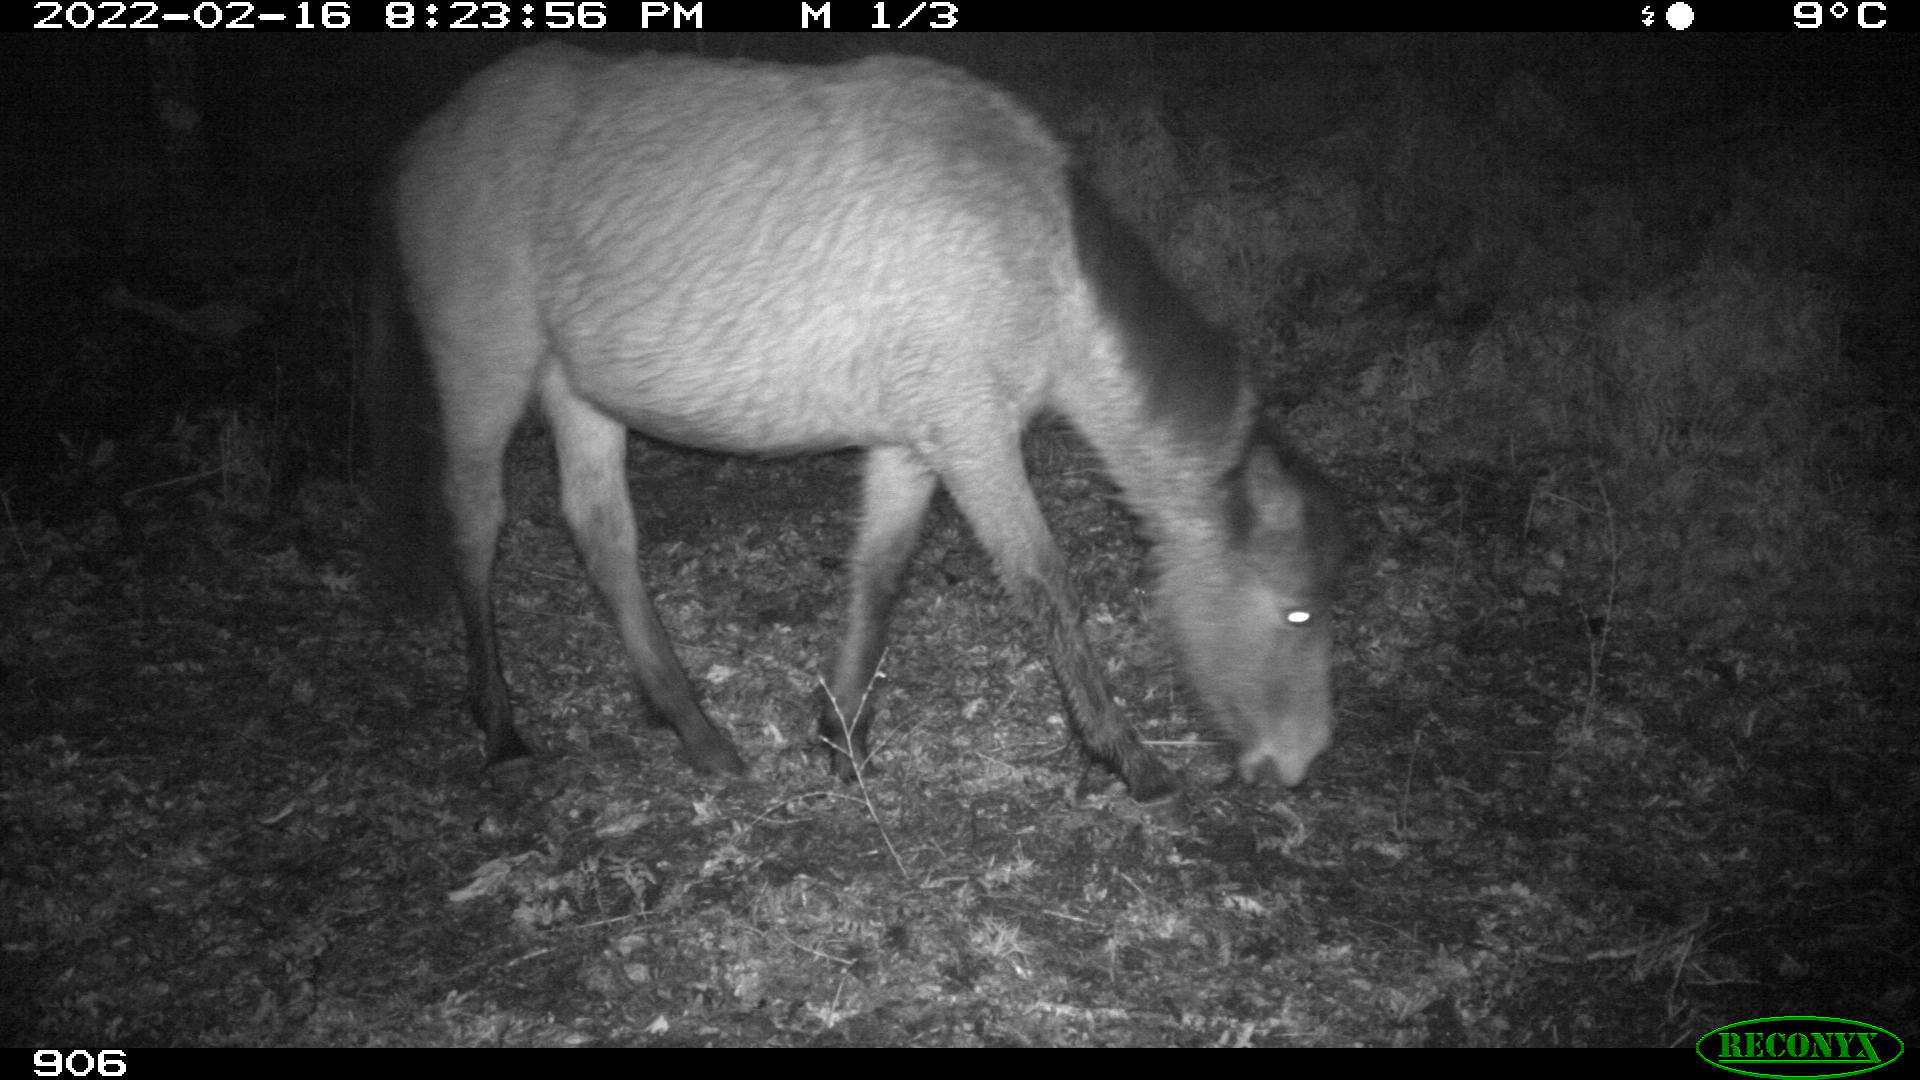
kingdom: Animalia
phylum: Chordata
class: Mammalia
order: Perissodactyla
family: Equidae
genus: Equus
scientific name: Equus caballus
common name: Horse
